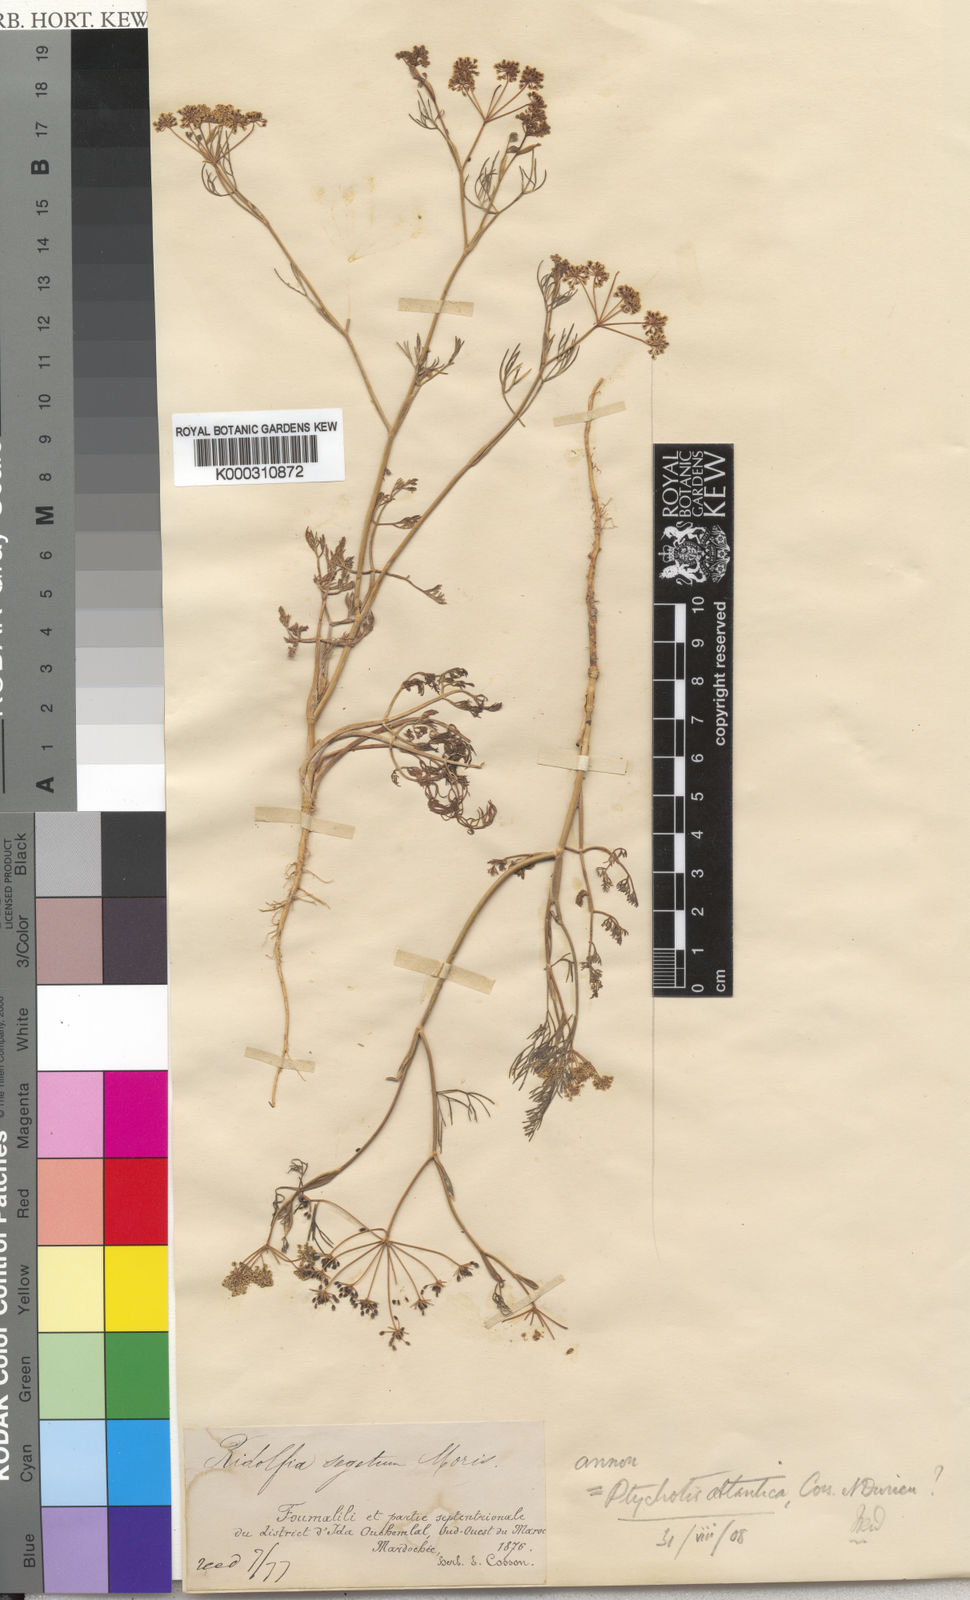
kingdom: Plantae
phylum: Tracheophyta
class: Magnoliopsida
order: Apiales
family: Apiaceae
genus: Ammoides
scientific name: Ammoides atlantica
